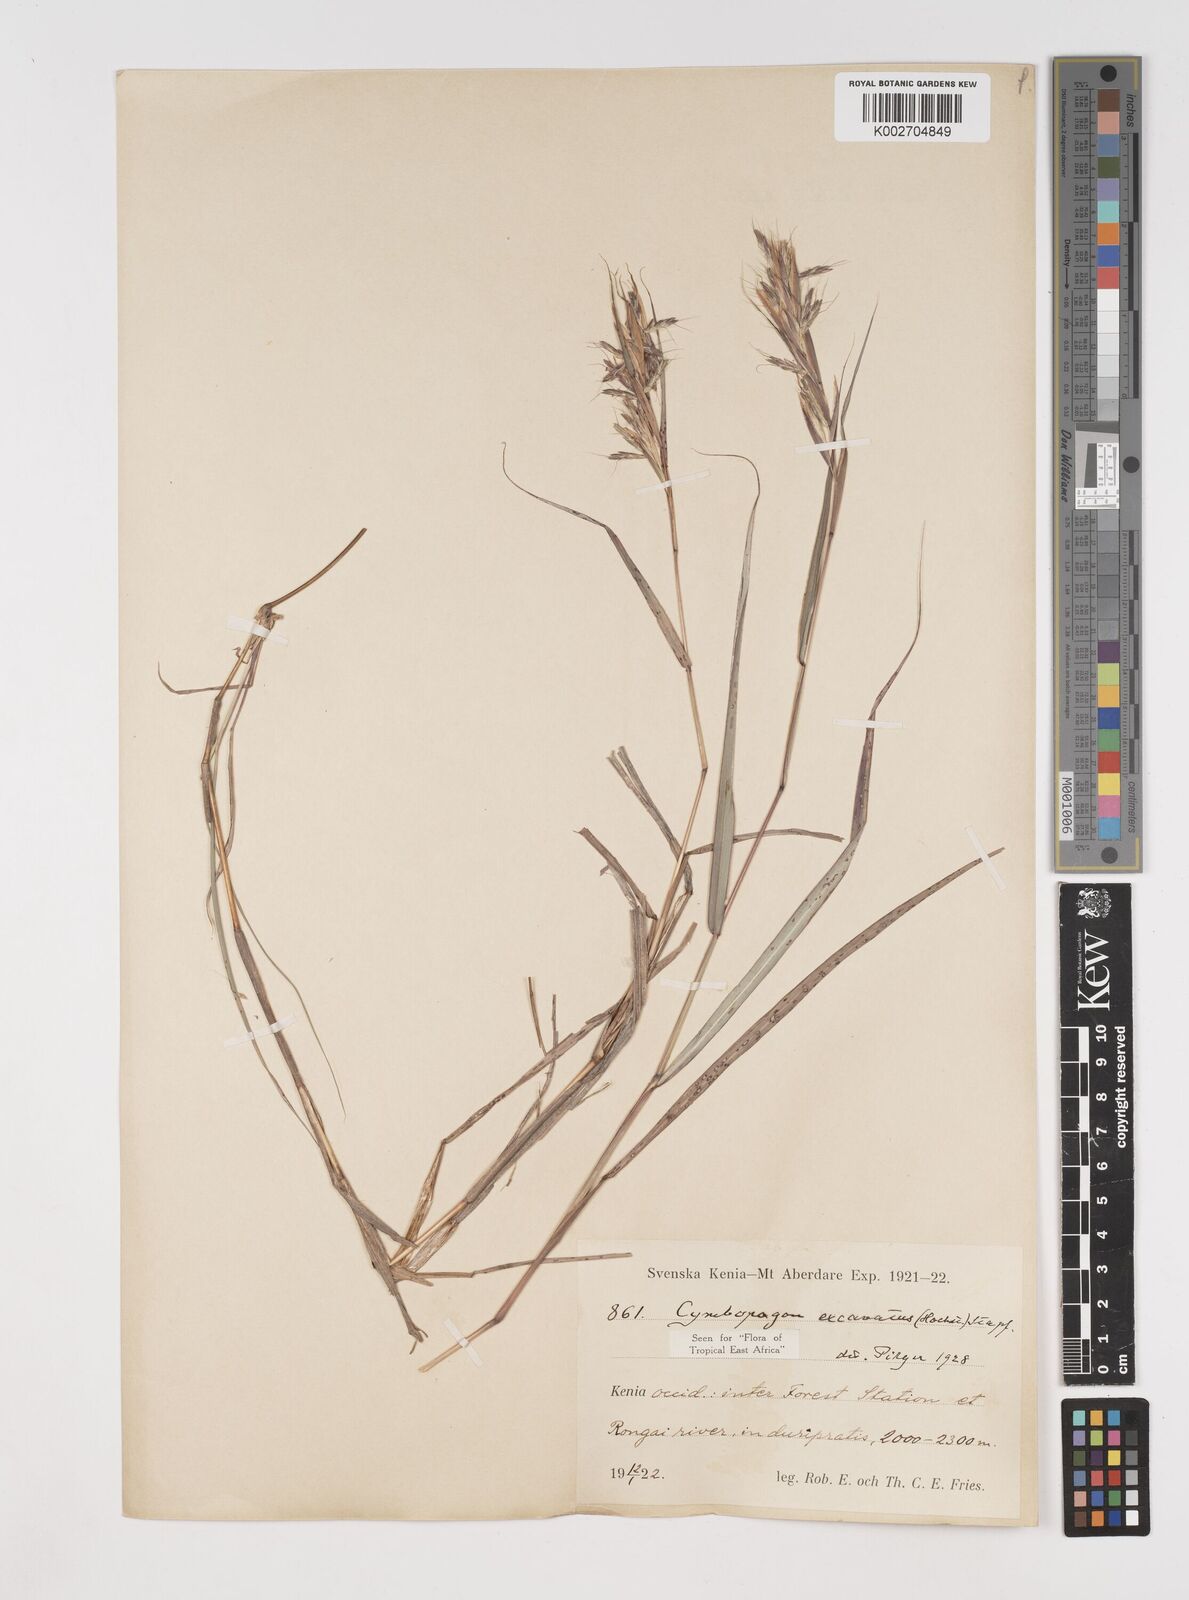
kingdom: Plantae
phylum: Tracheophyta
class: Liliopsida
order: Poales
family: Poaceae
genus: Cymbopogon
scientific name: Cymbopogon caesius
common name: Kachi grass
